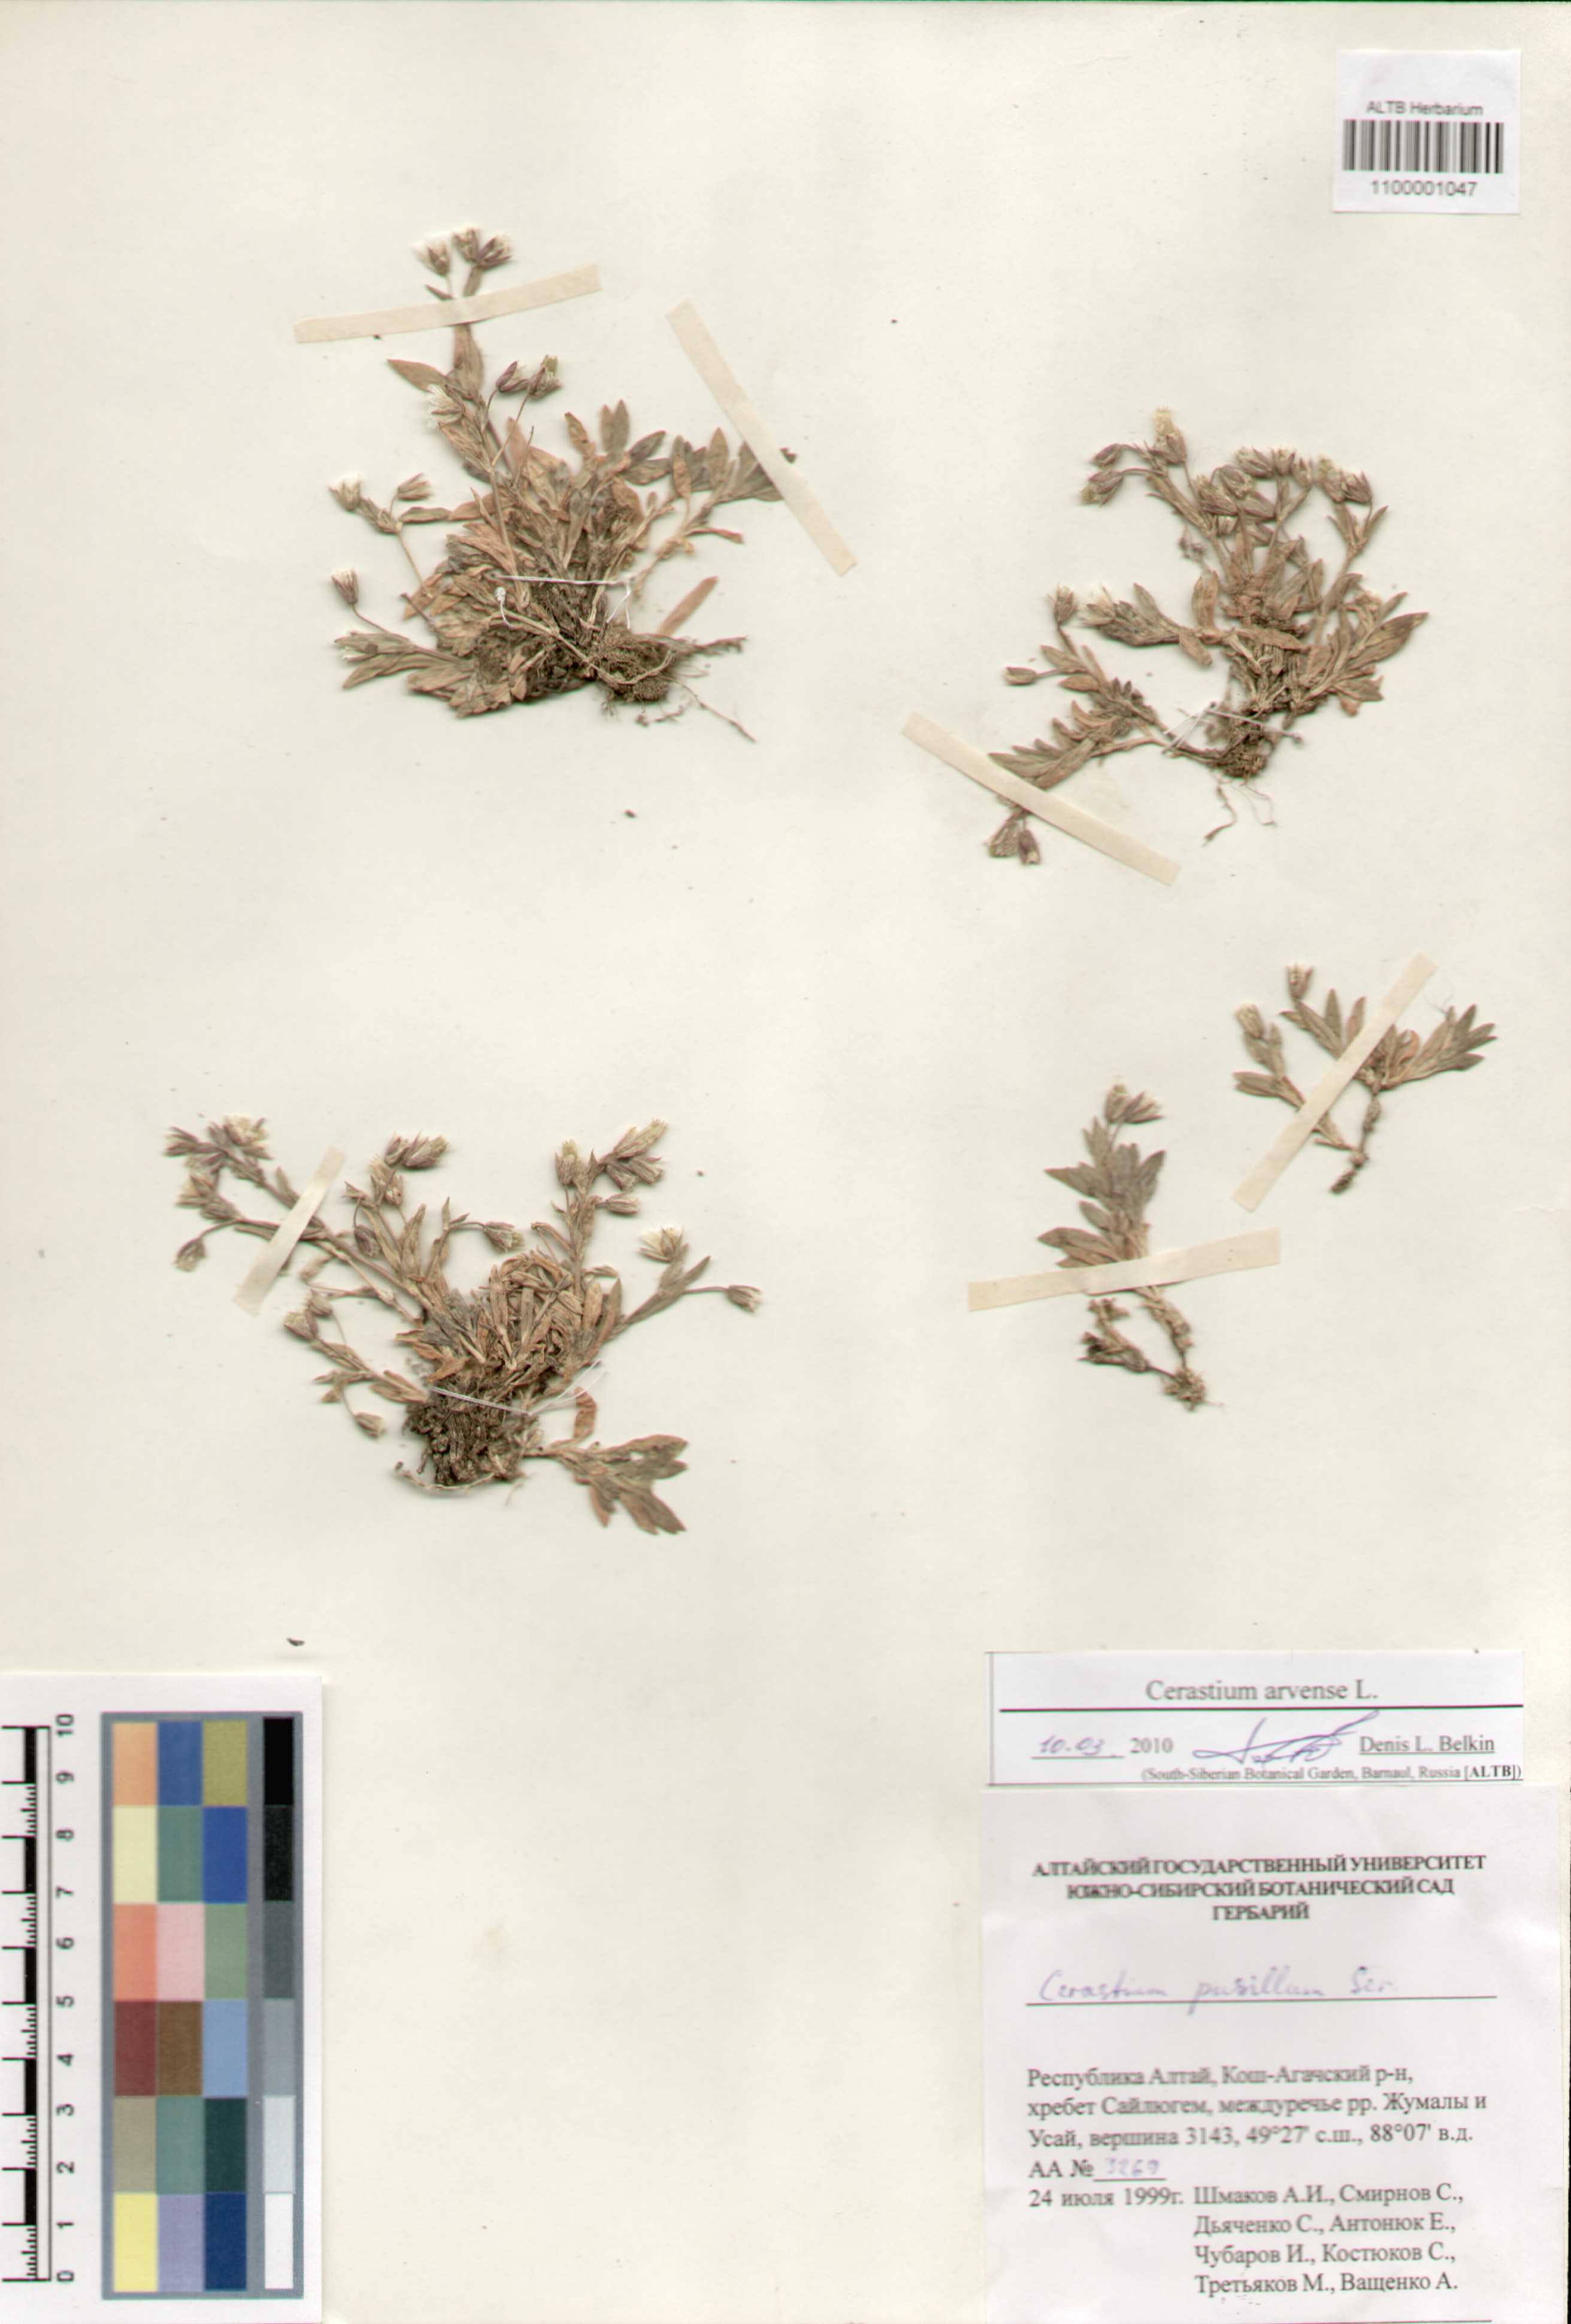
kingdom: Plantae
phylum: Tracheophyta
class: Magnoliopsida
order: Caryophyllales
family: Caryophyllaceae
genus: Cerastium
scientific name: Cerastium arvense
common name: Field mouse-ear
